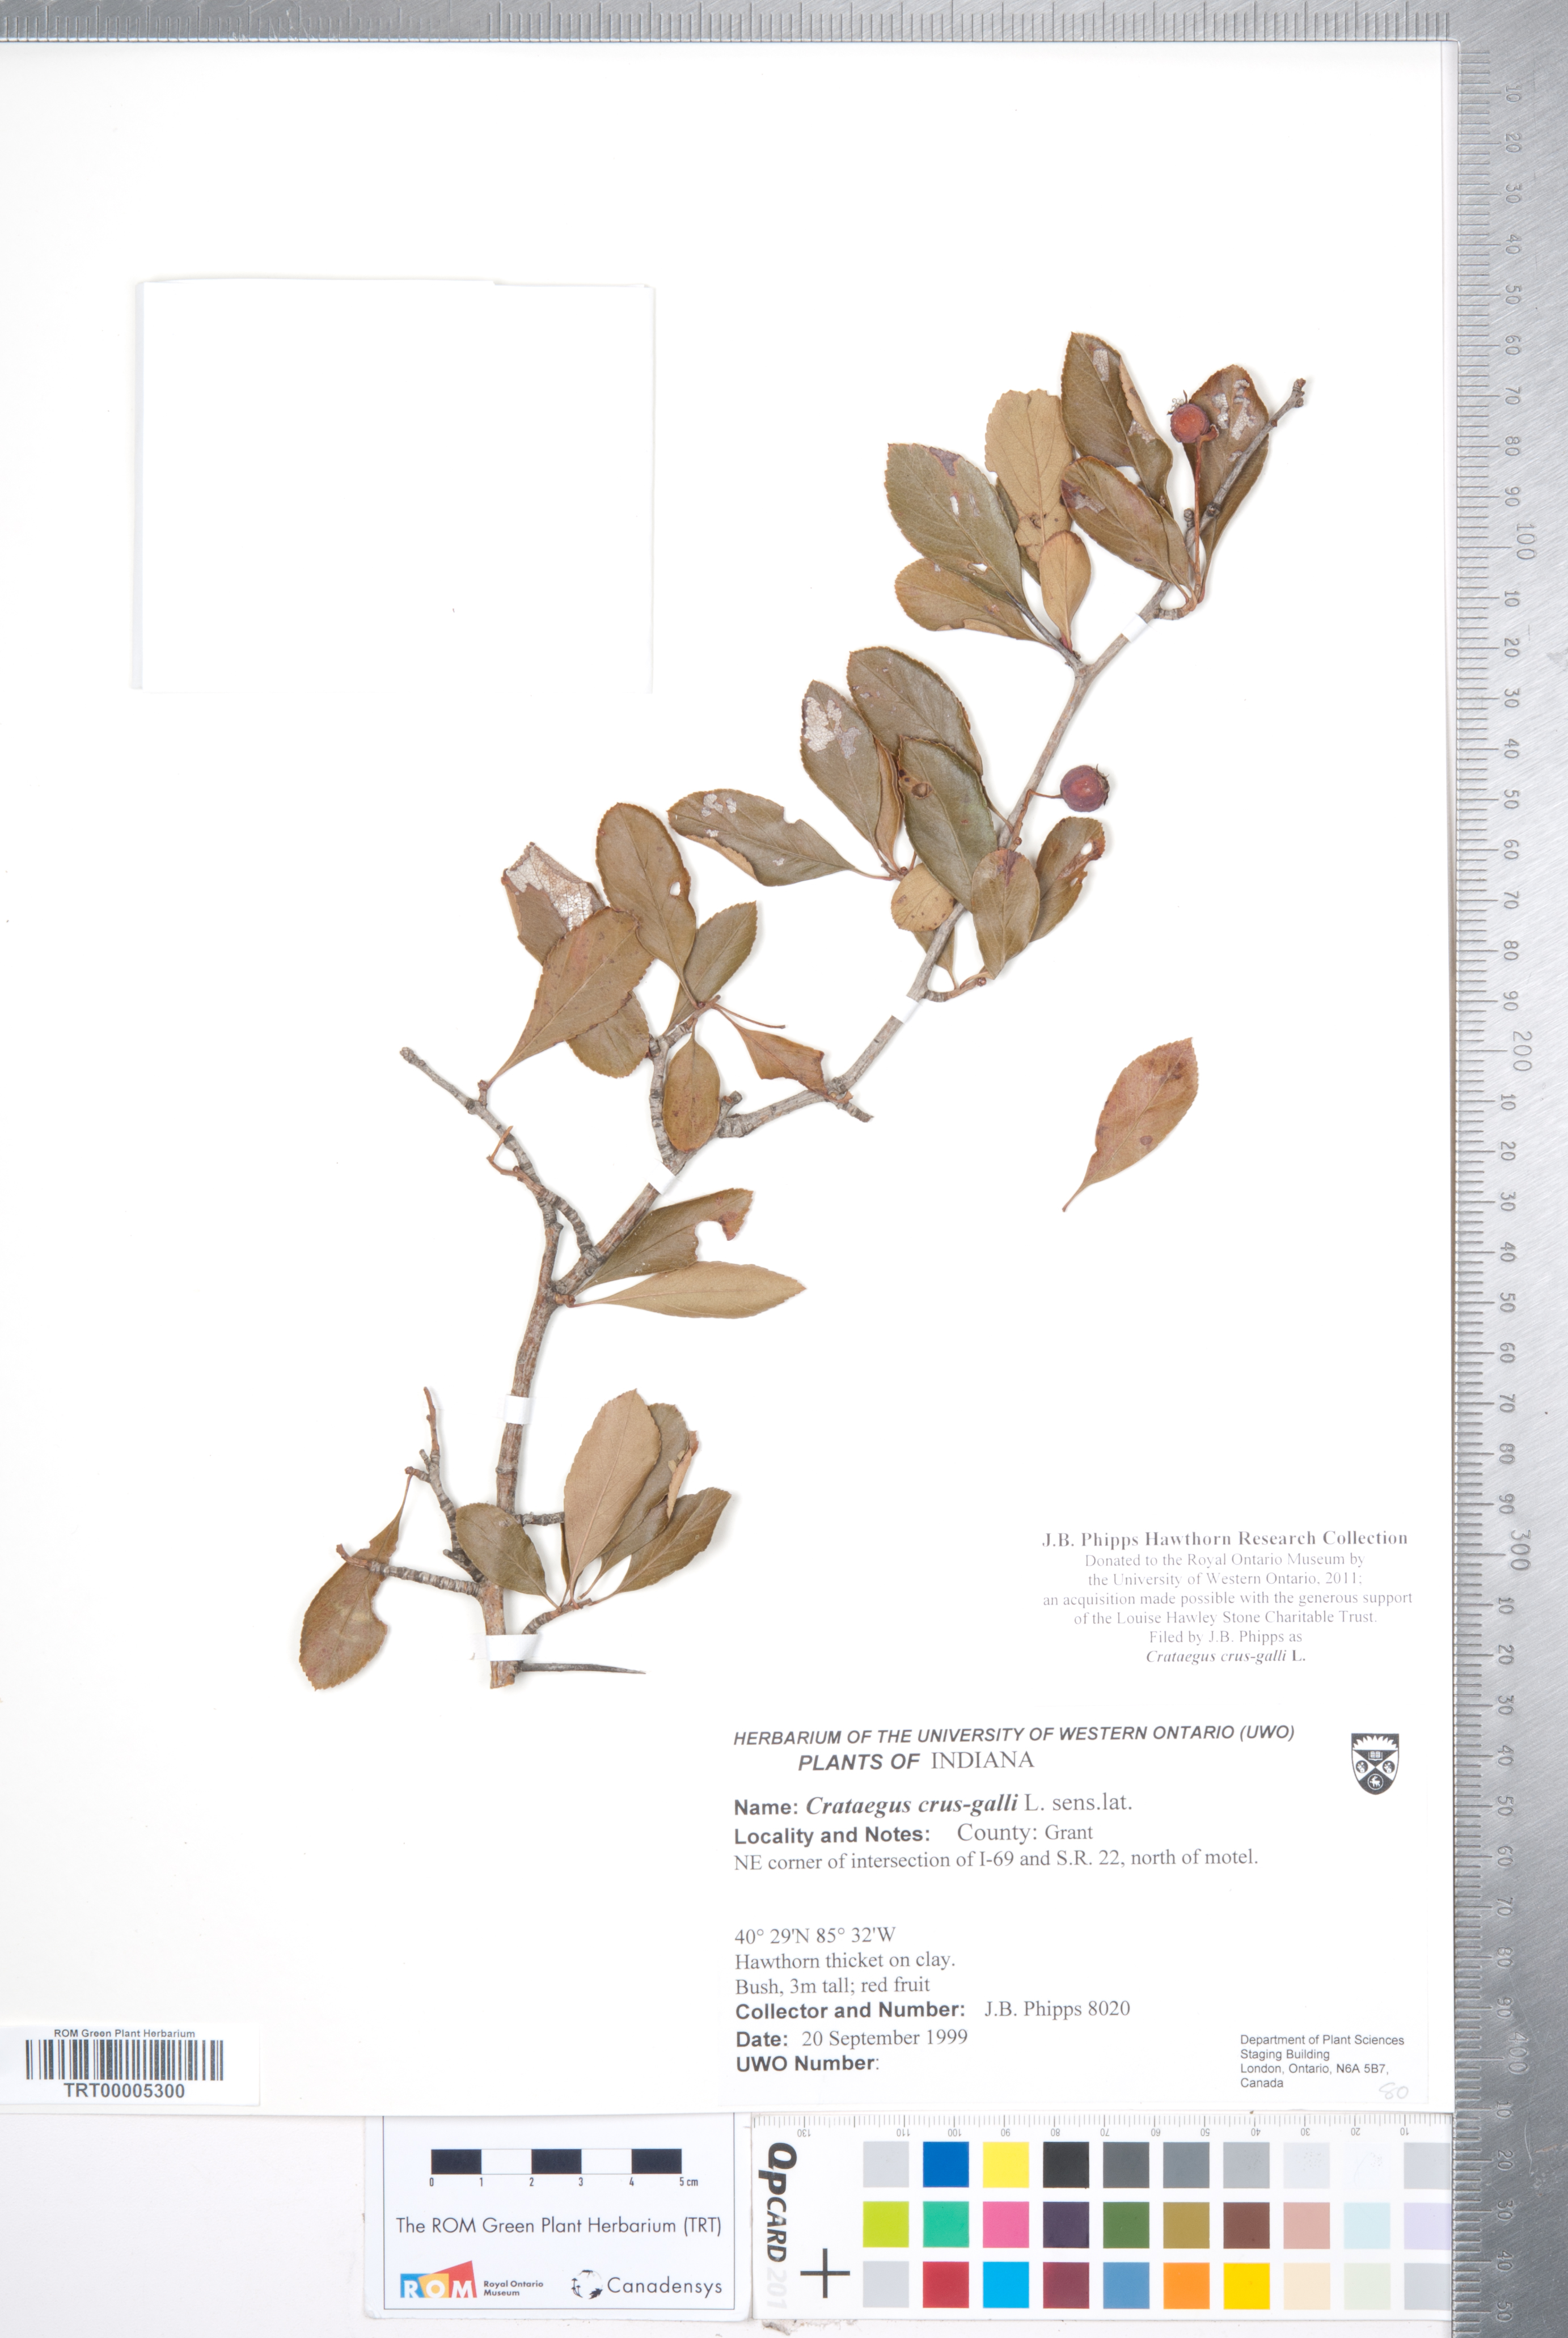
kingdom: Plantae
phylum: Tracheophyta
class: Magnoliopsida
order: Rosales
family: Rosaceae
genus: Crataegus
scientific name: Crataegus crus-galli
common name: Cockspurthorn
